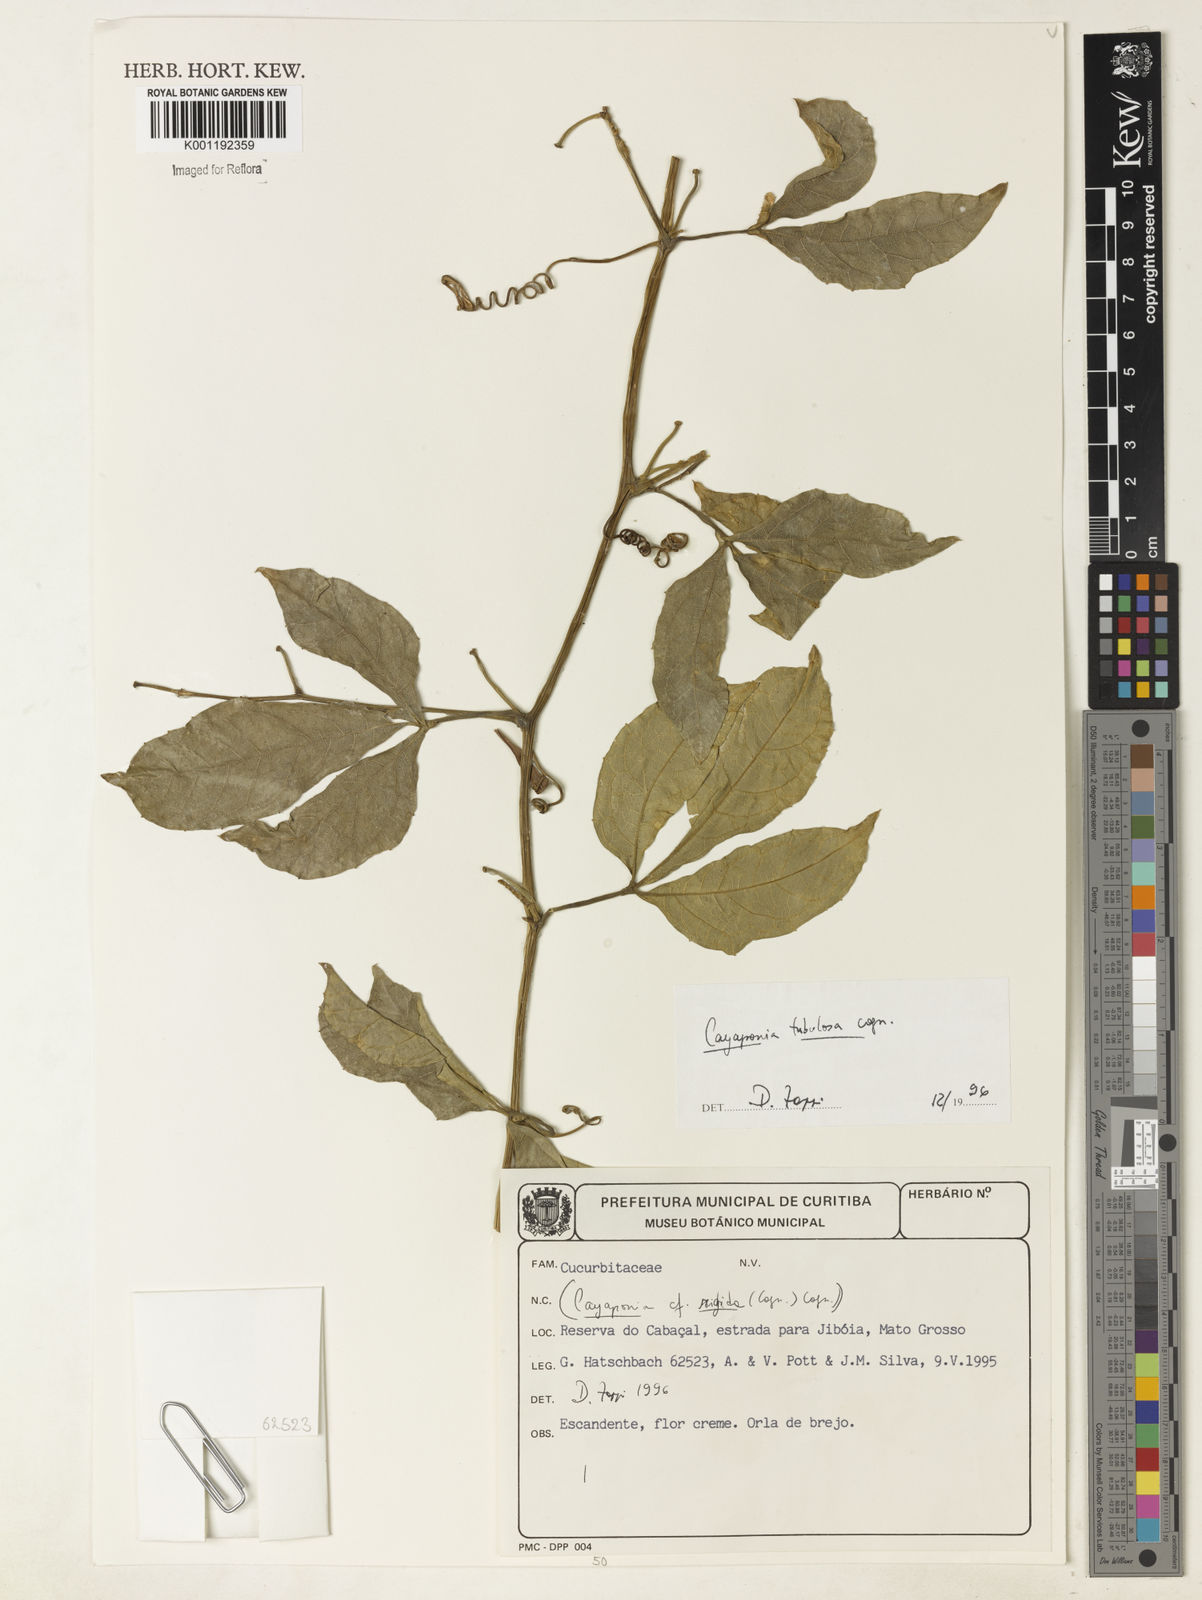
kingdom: Plantae
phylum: Tracheophyta
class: Magnoliopsida
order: Cucurbitales
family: Cucurbitaceae
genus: Cayaponia
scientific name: Cayaponia tubulosa
